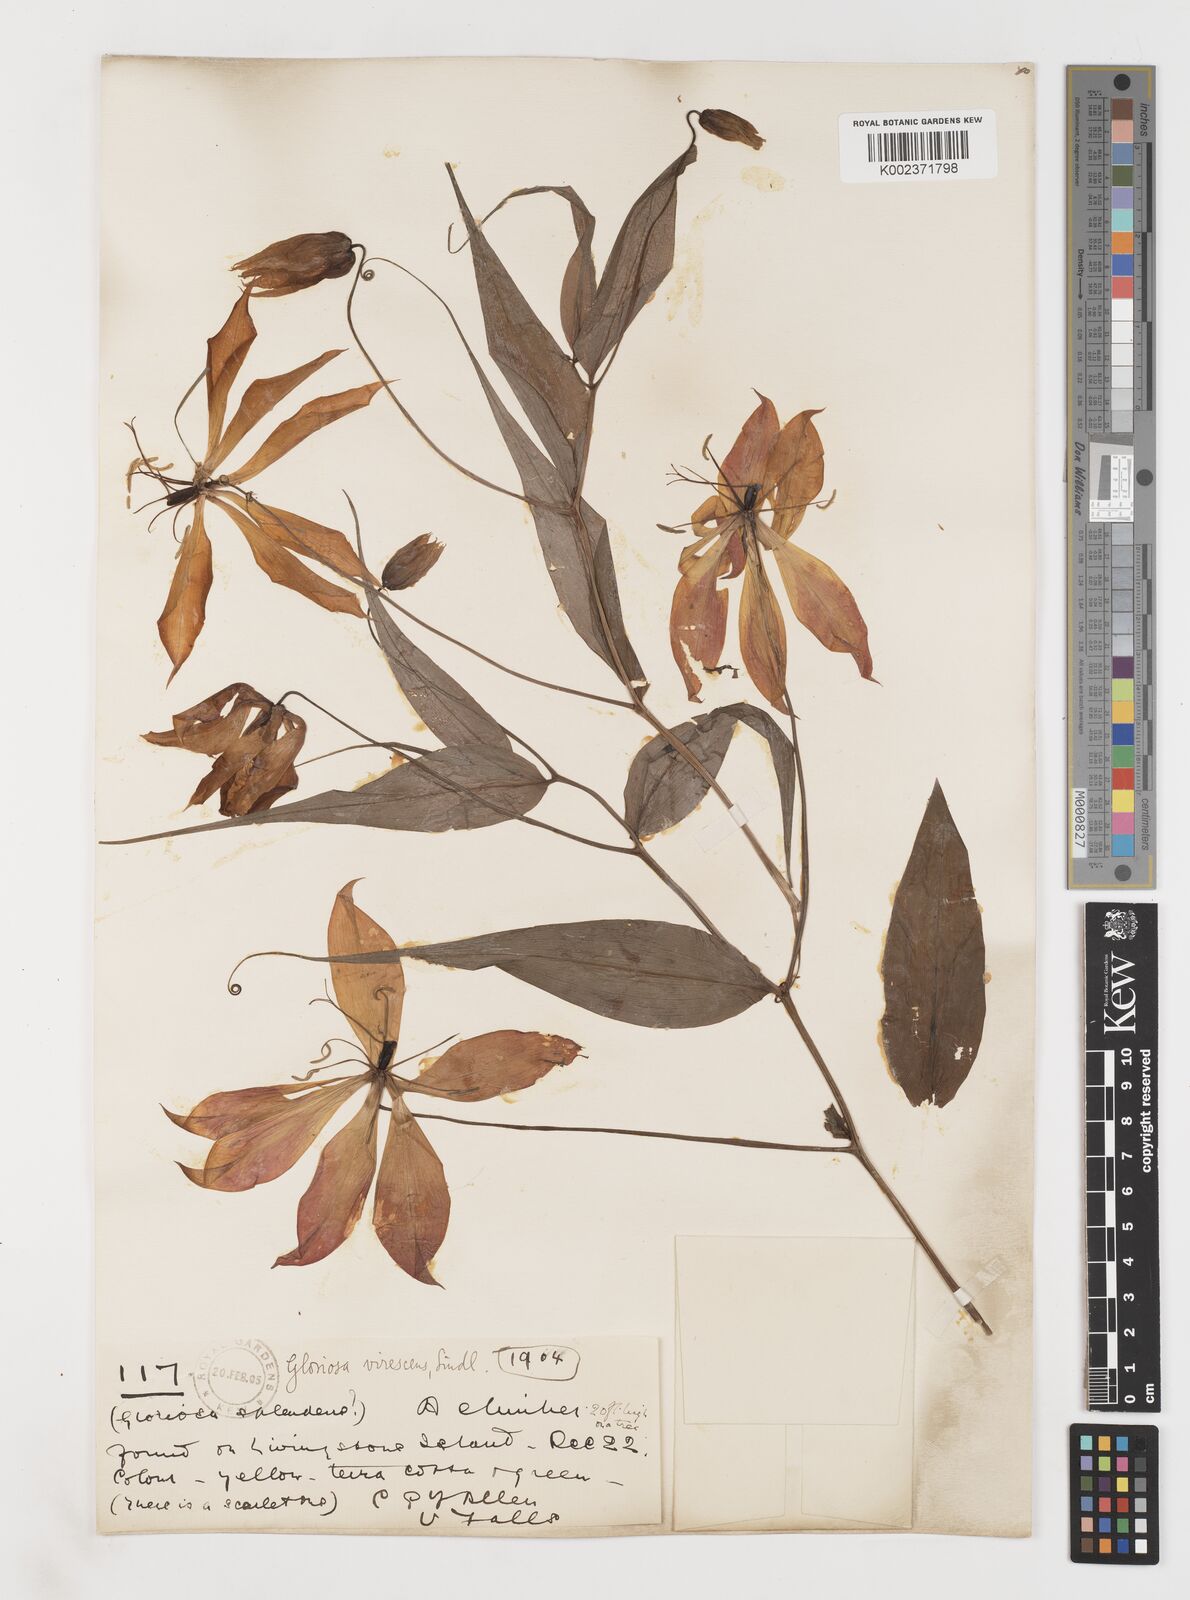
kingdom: Plantae
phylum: Tracheophyta
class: Liliopsida
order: Liliales
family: Colchicaceae
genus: Gloriosa
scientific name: Gloriosa simplex
